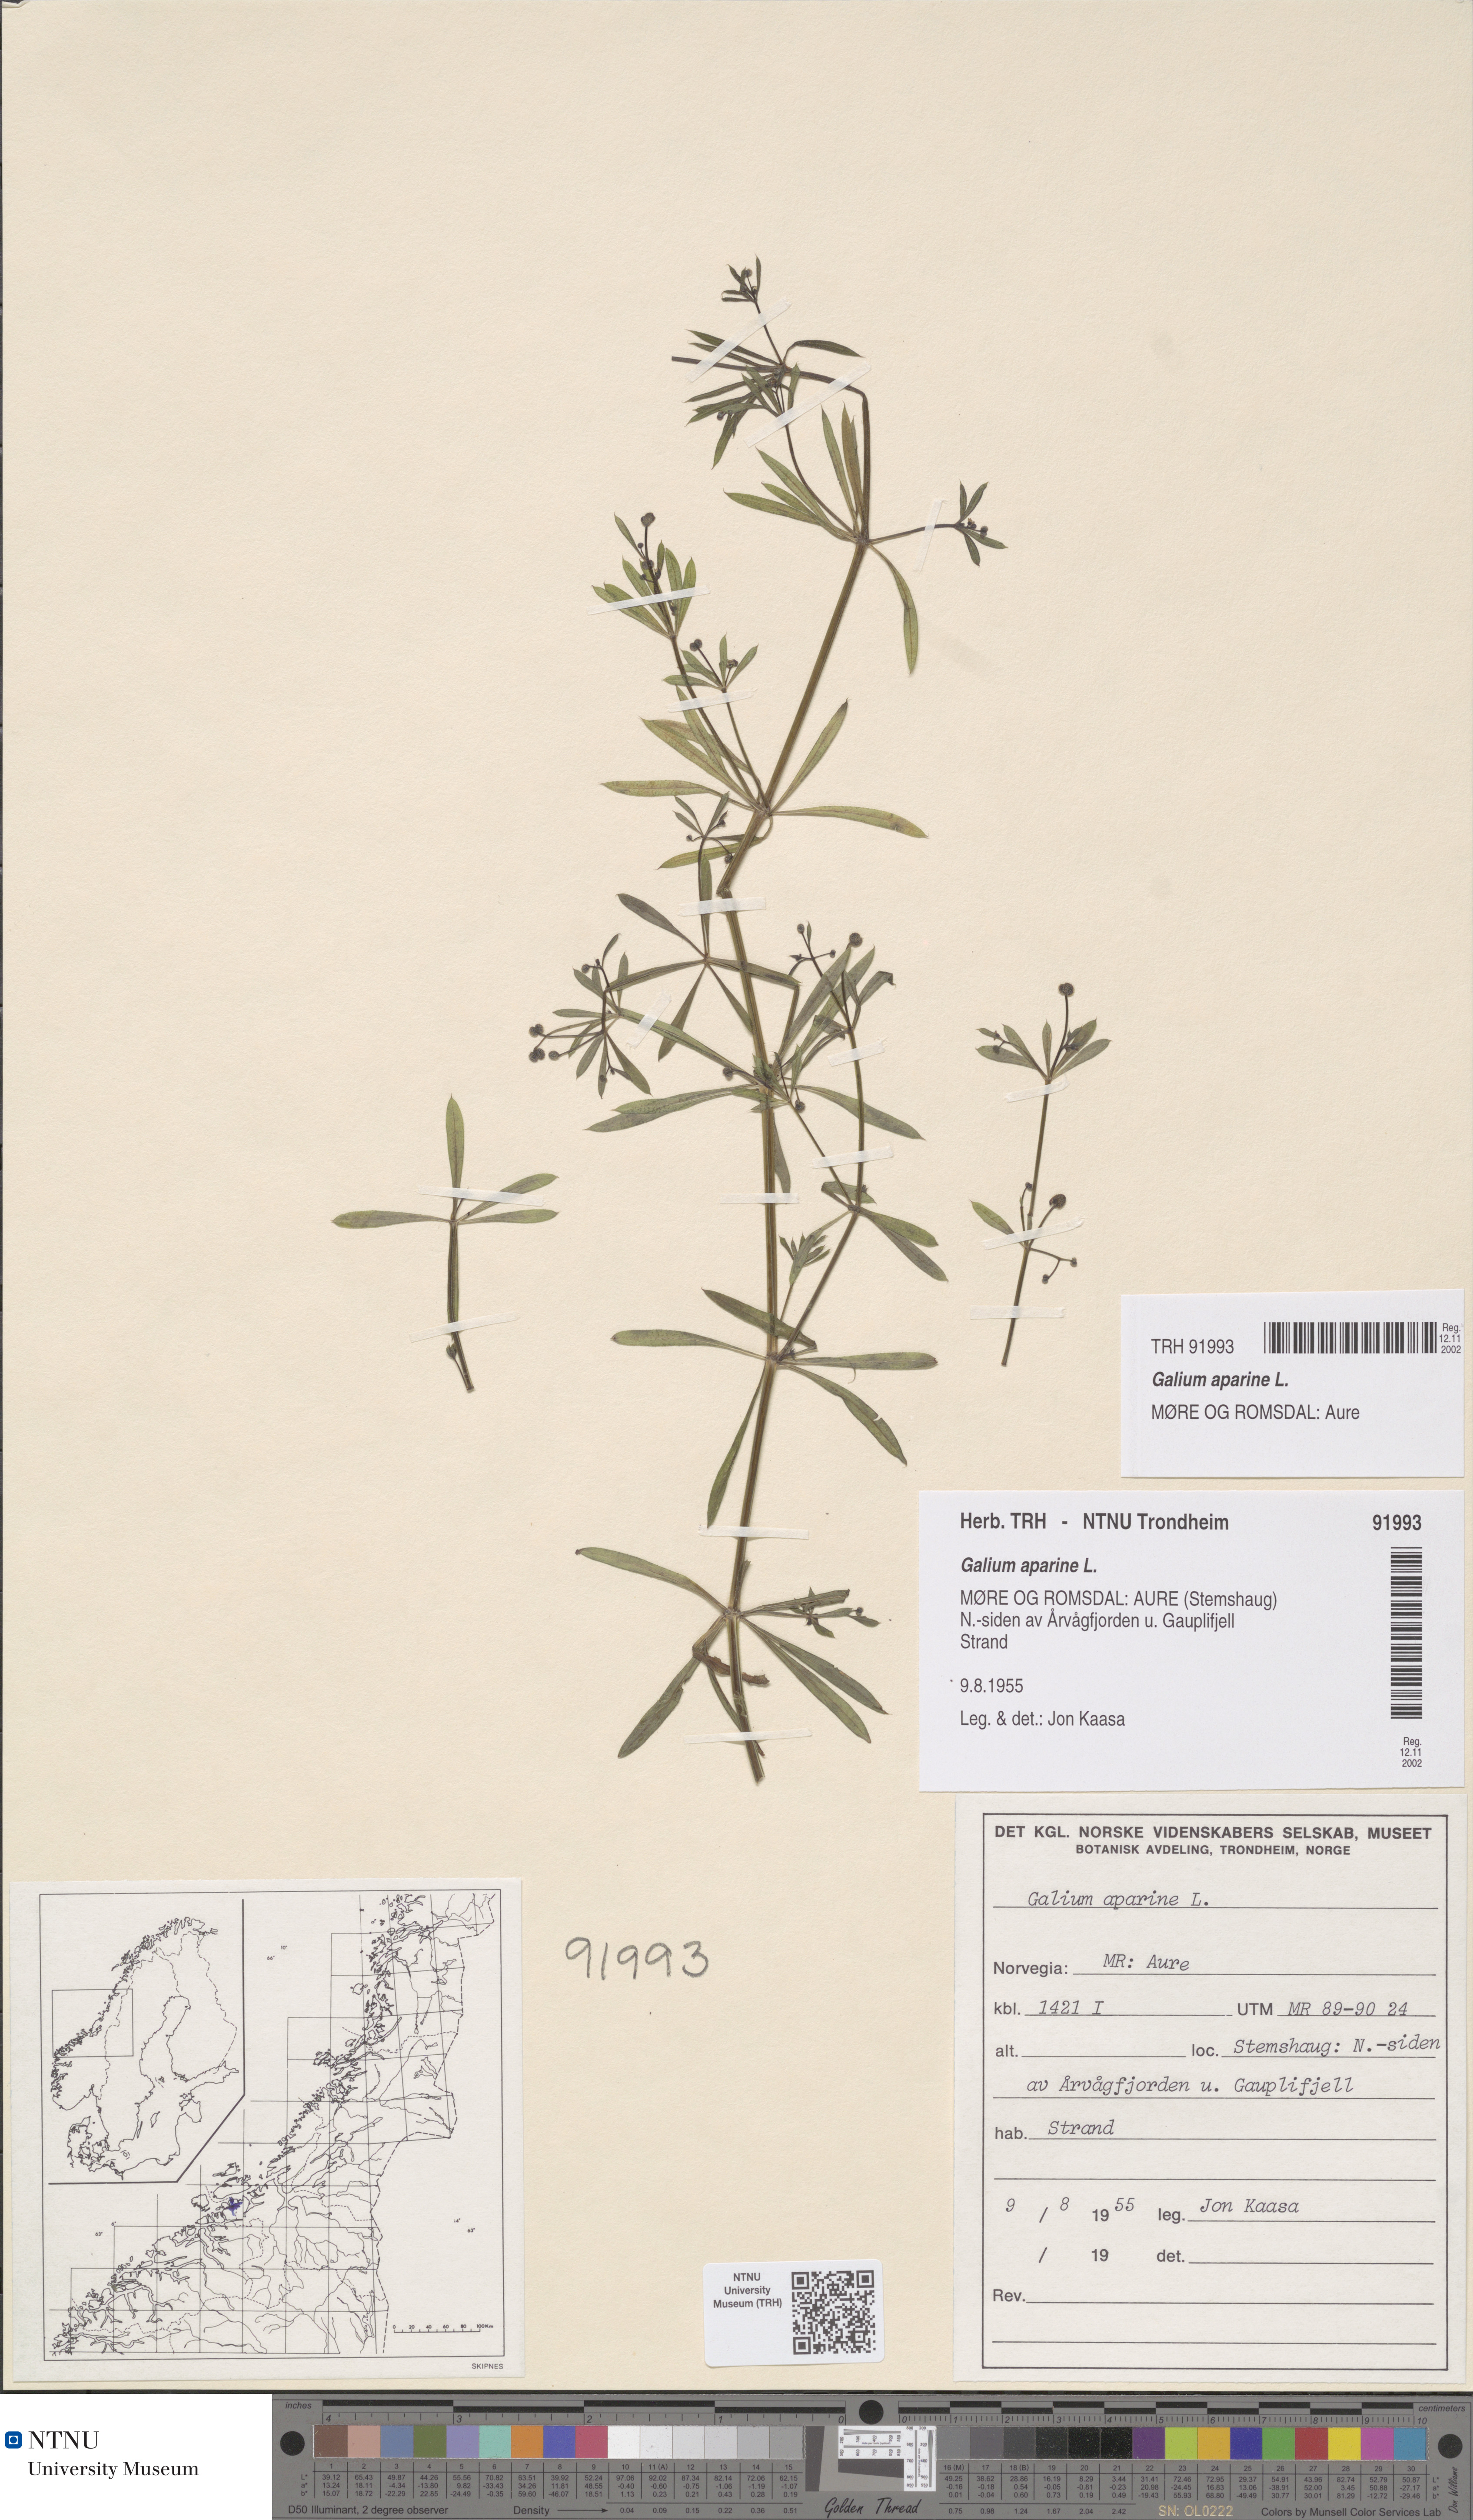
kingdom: Plantae
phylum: Tracheophyta
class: Magnoliopsida
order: Gentianales
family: Rubiaceae
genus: Galium
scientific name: Galium aparine
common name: Cleavers
